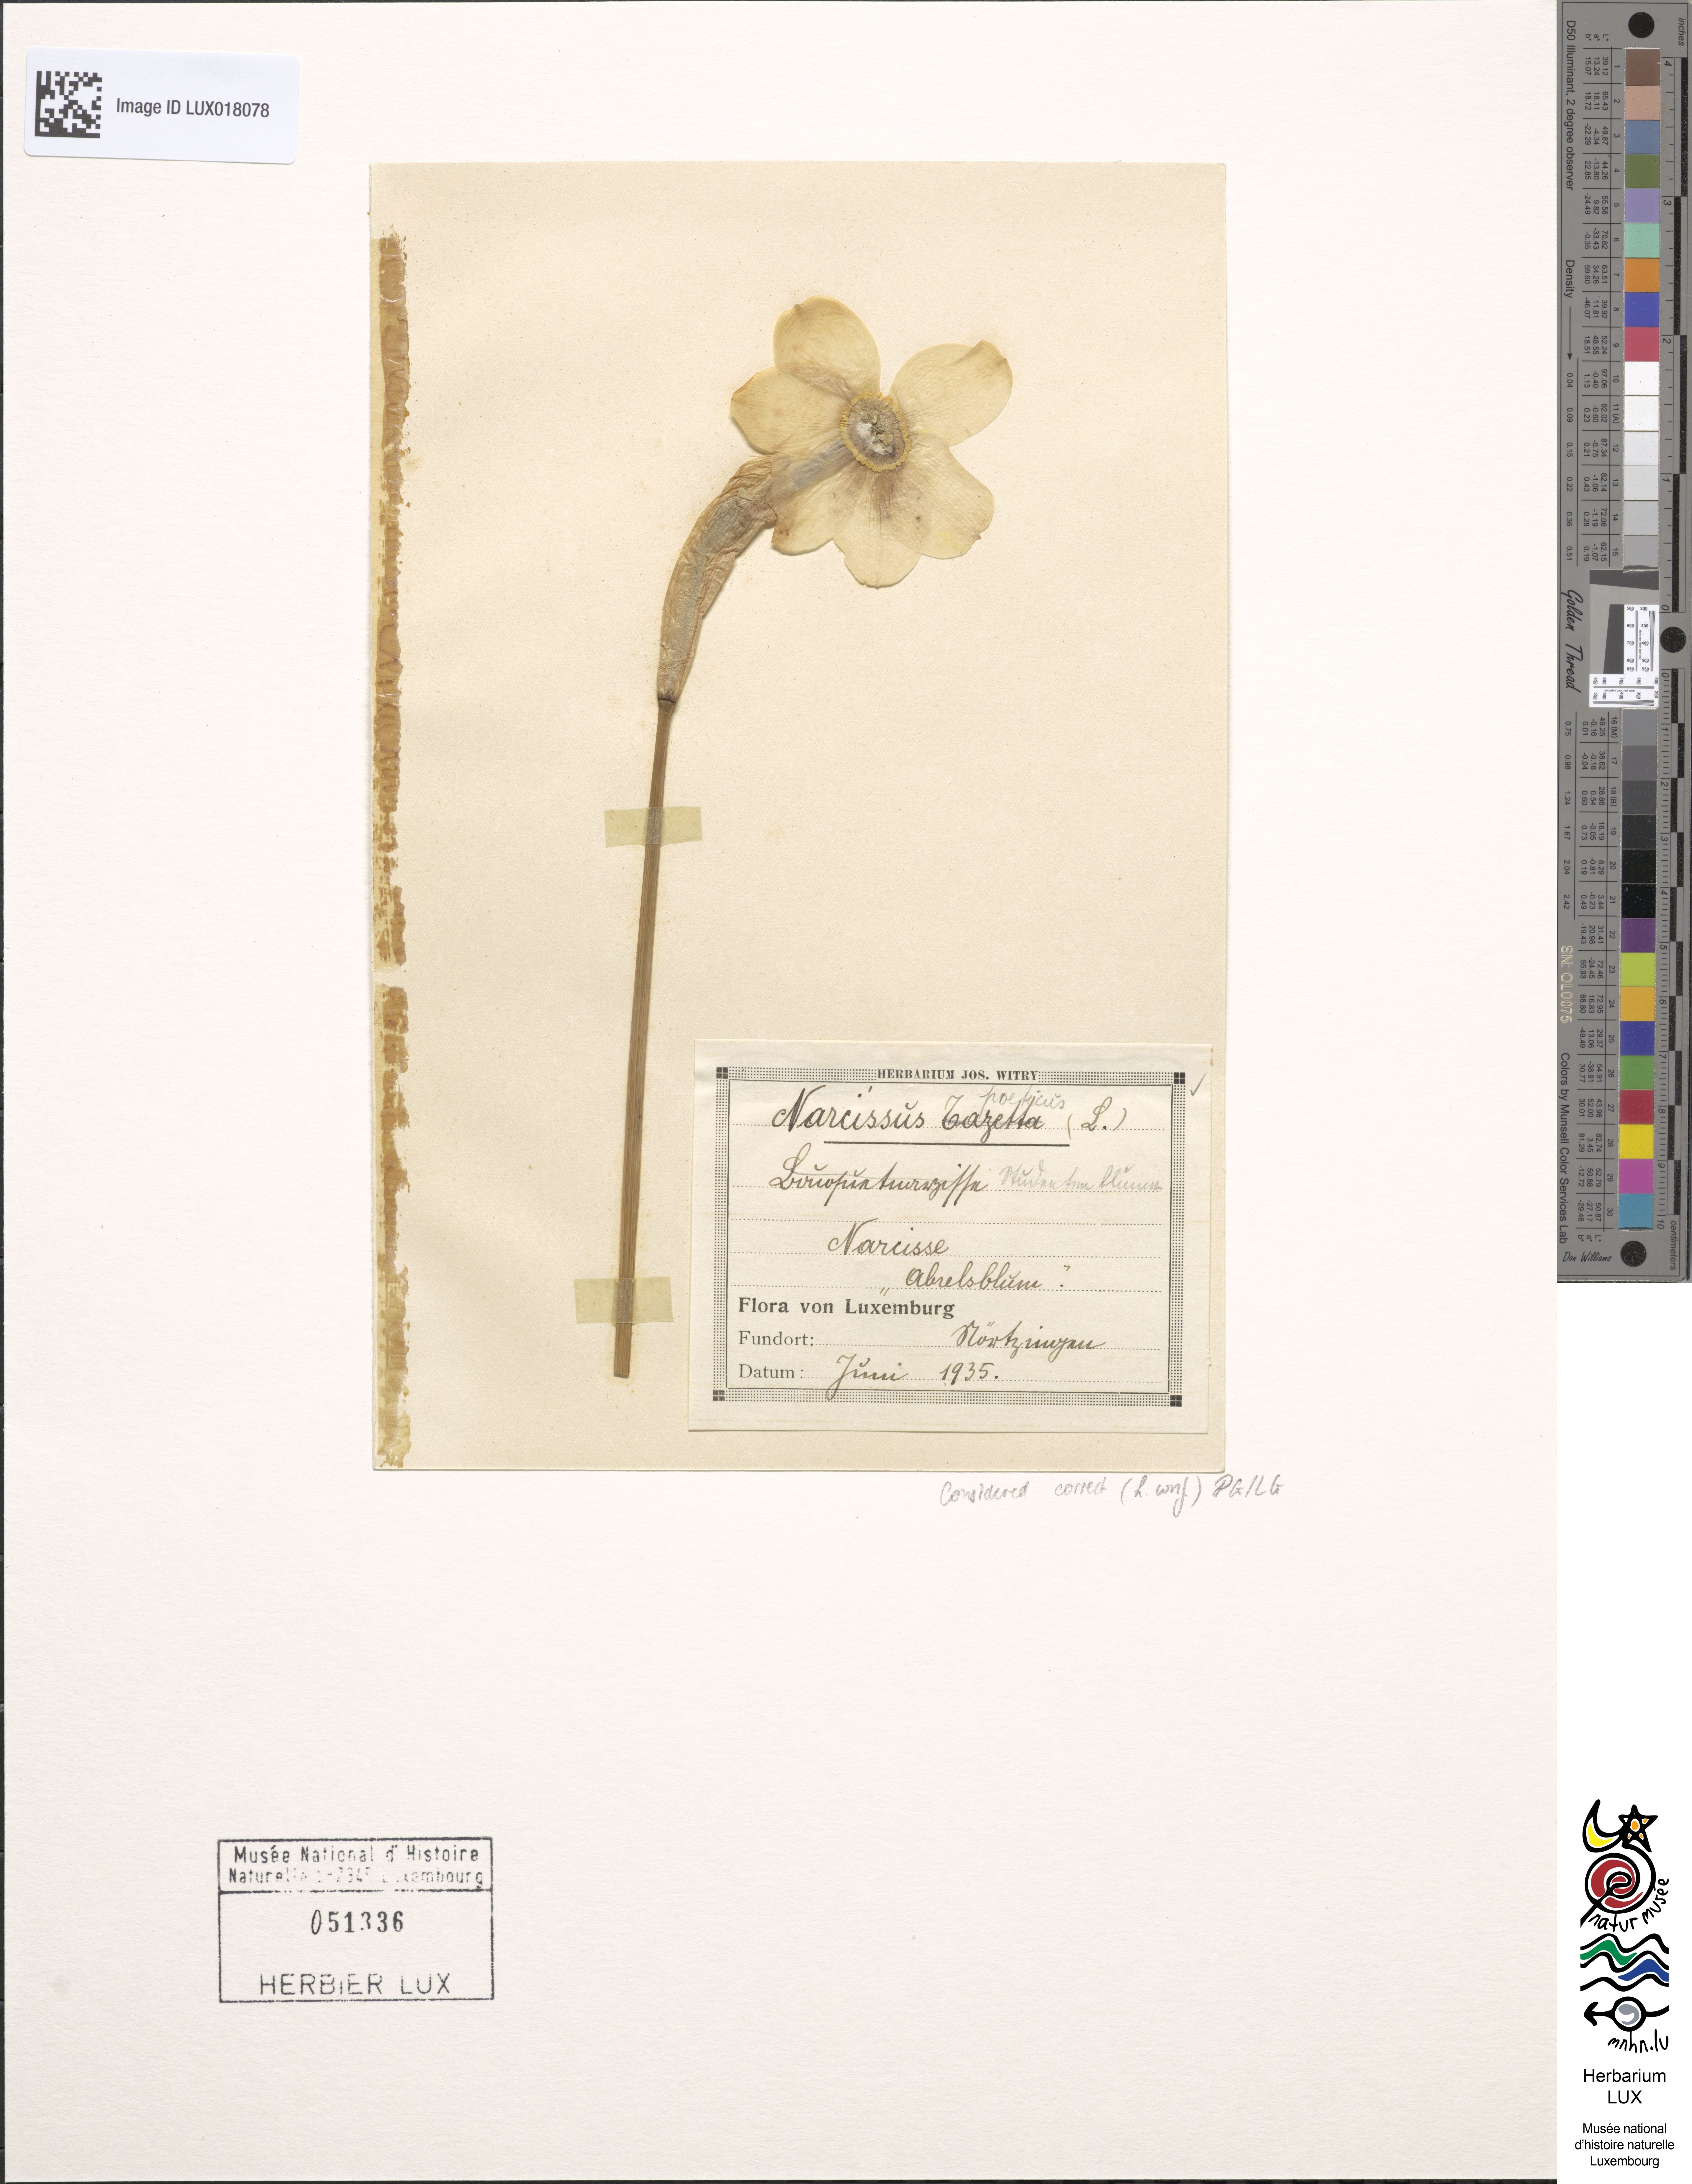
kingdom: Plantae
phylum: Tracheophyta
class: Liliopsida
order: Asparagales
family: Amaryllidaceae
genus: Narcissus
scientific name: Narcissus poeticus
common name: Pheasant's-eye daffodil
